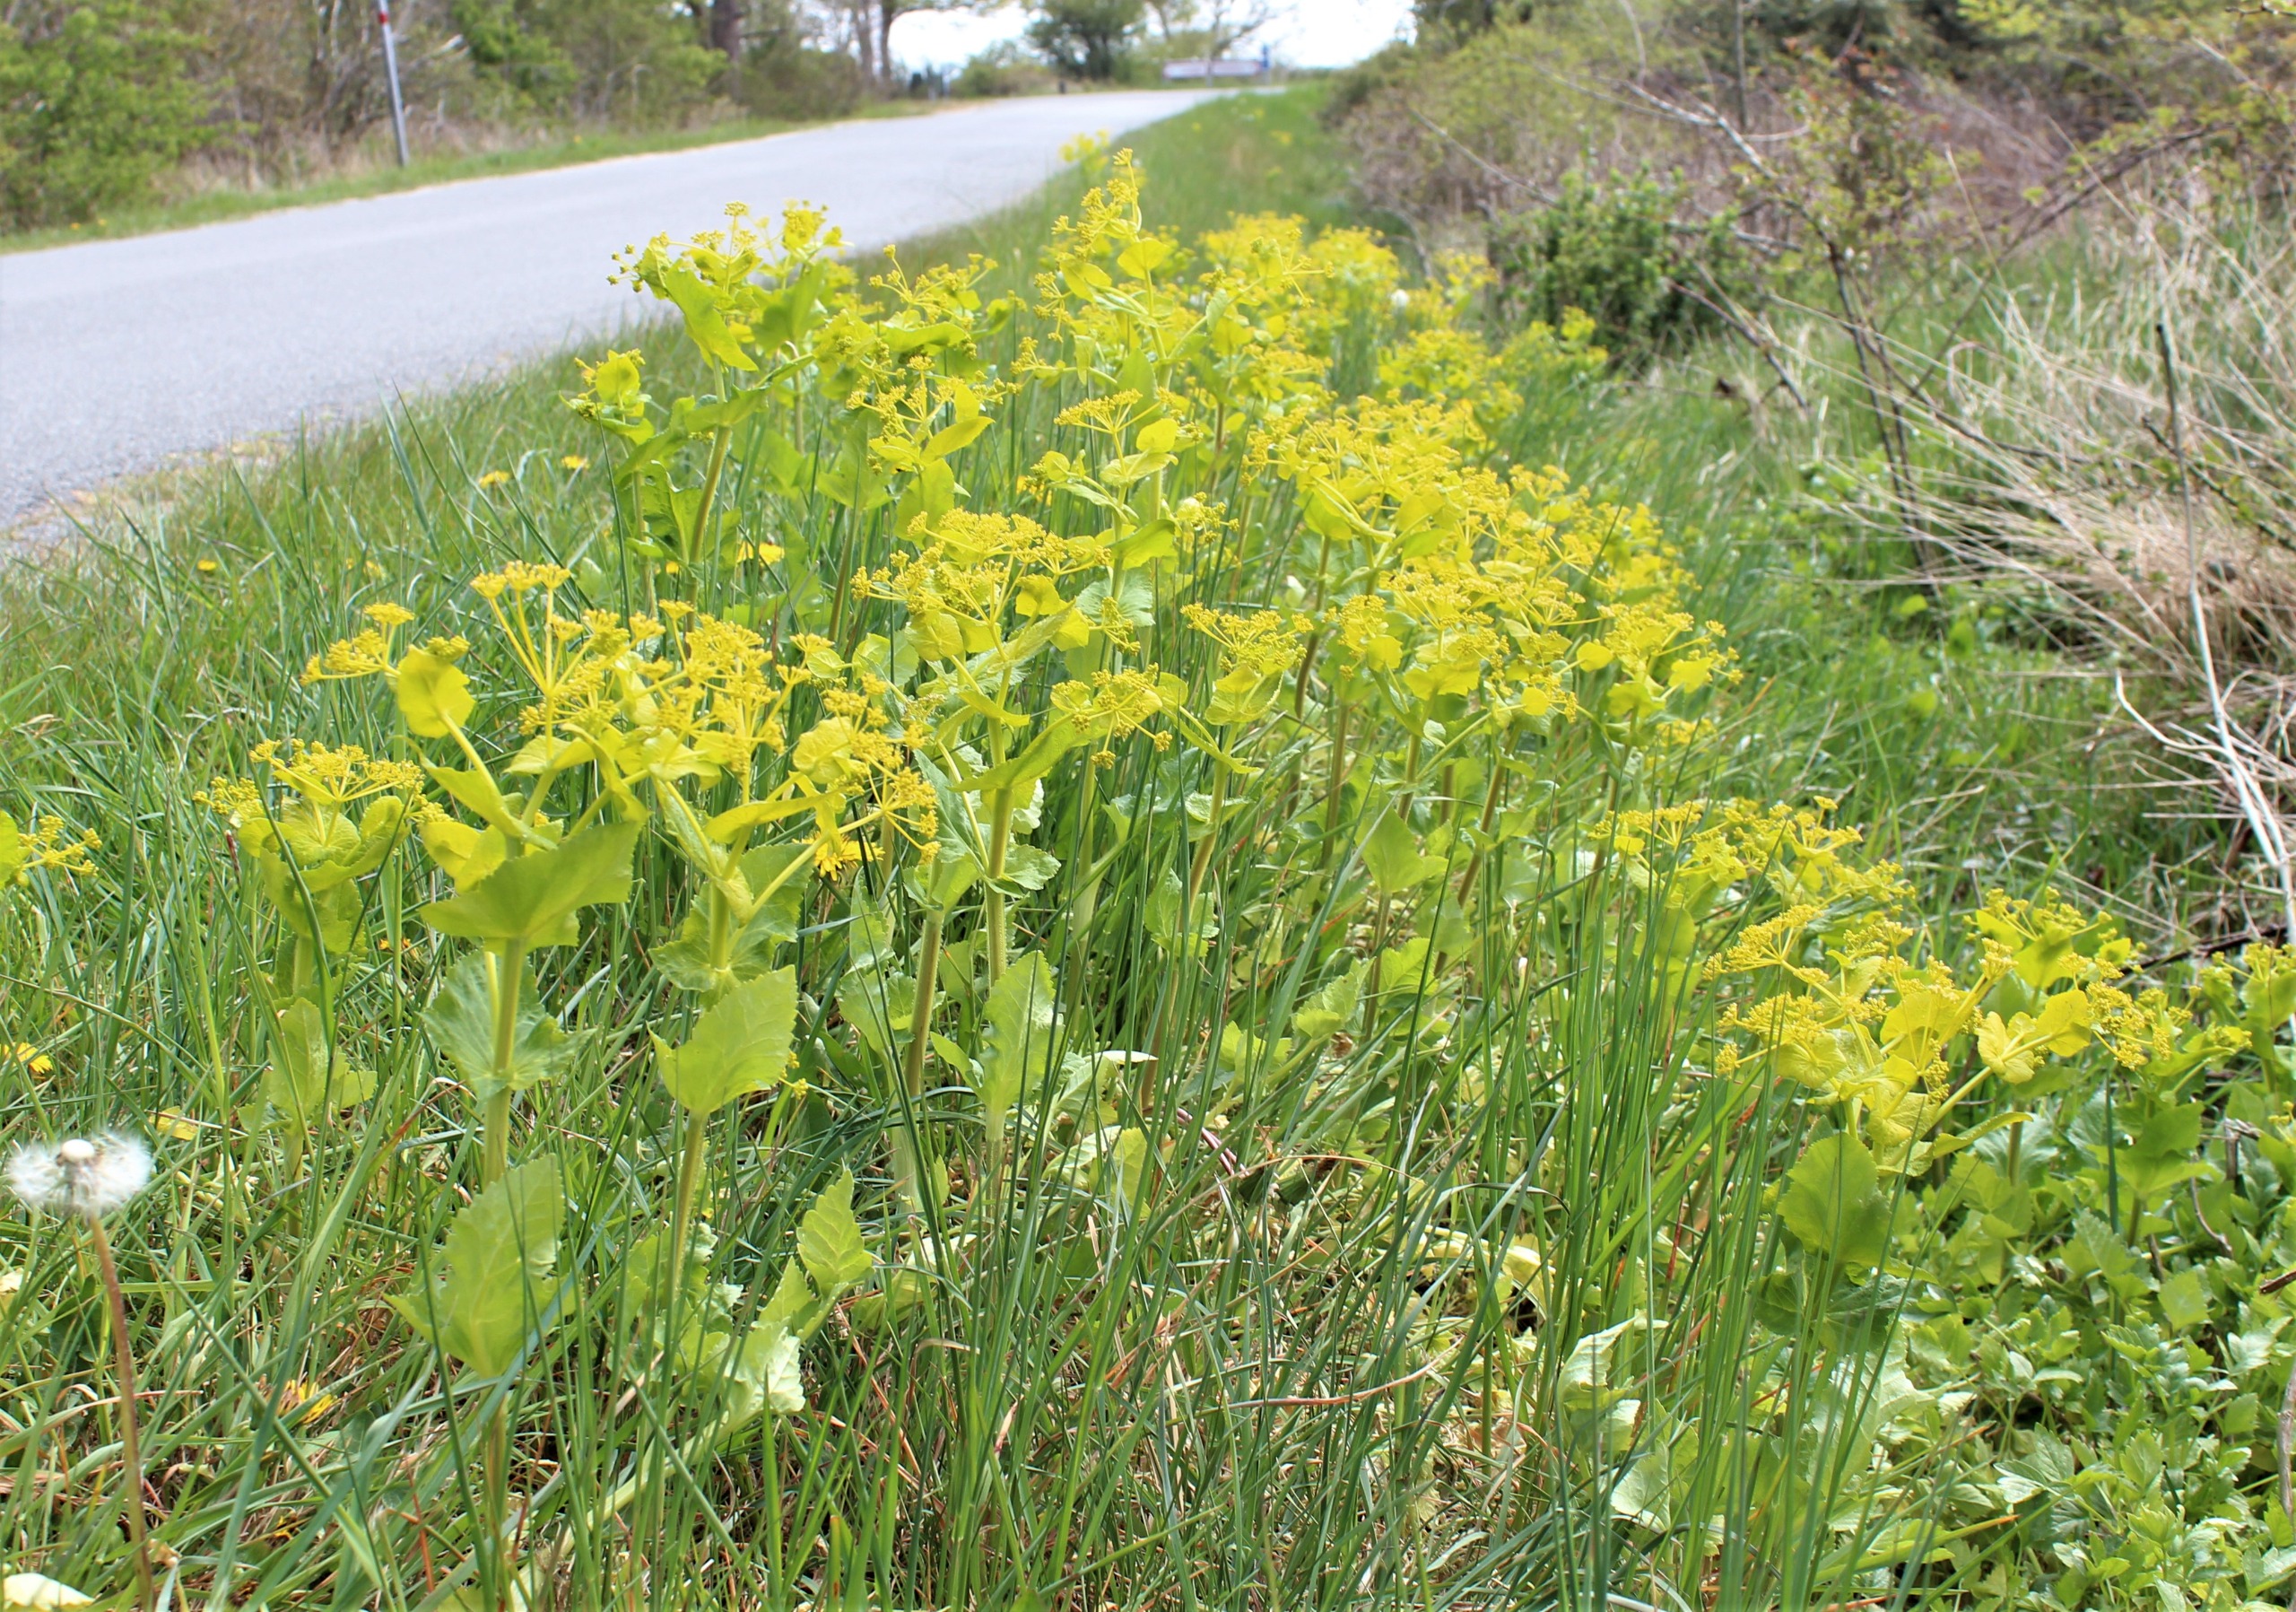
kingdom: Plantae
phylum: Tracheophyta
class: Magnoliopsida
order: Apiales
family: Apiaceae
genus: Smyrnium
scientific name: Smyrnium perfoliatum
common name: Lundgylden
